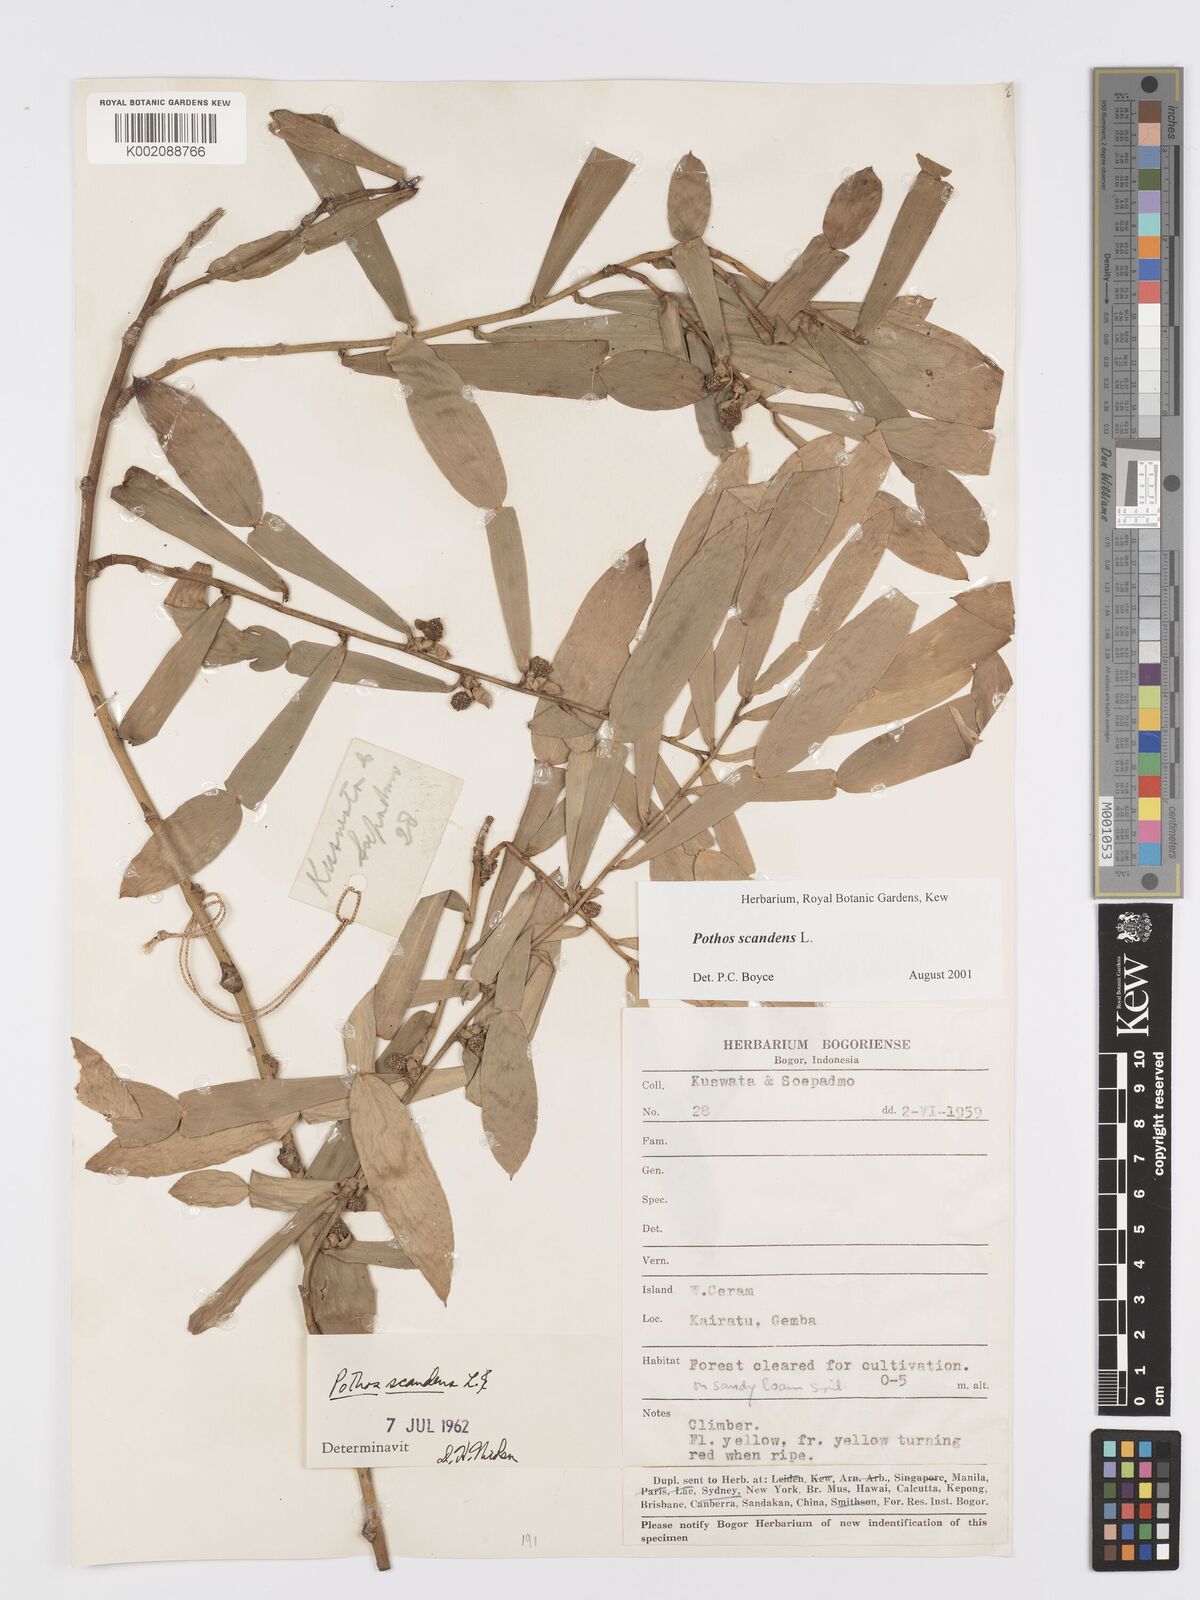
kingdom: Plantae
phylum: Tracheophyta
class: Liliopsida
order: Alismatales
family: Araceae
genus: Pothos
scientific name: Pothos scandens
